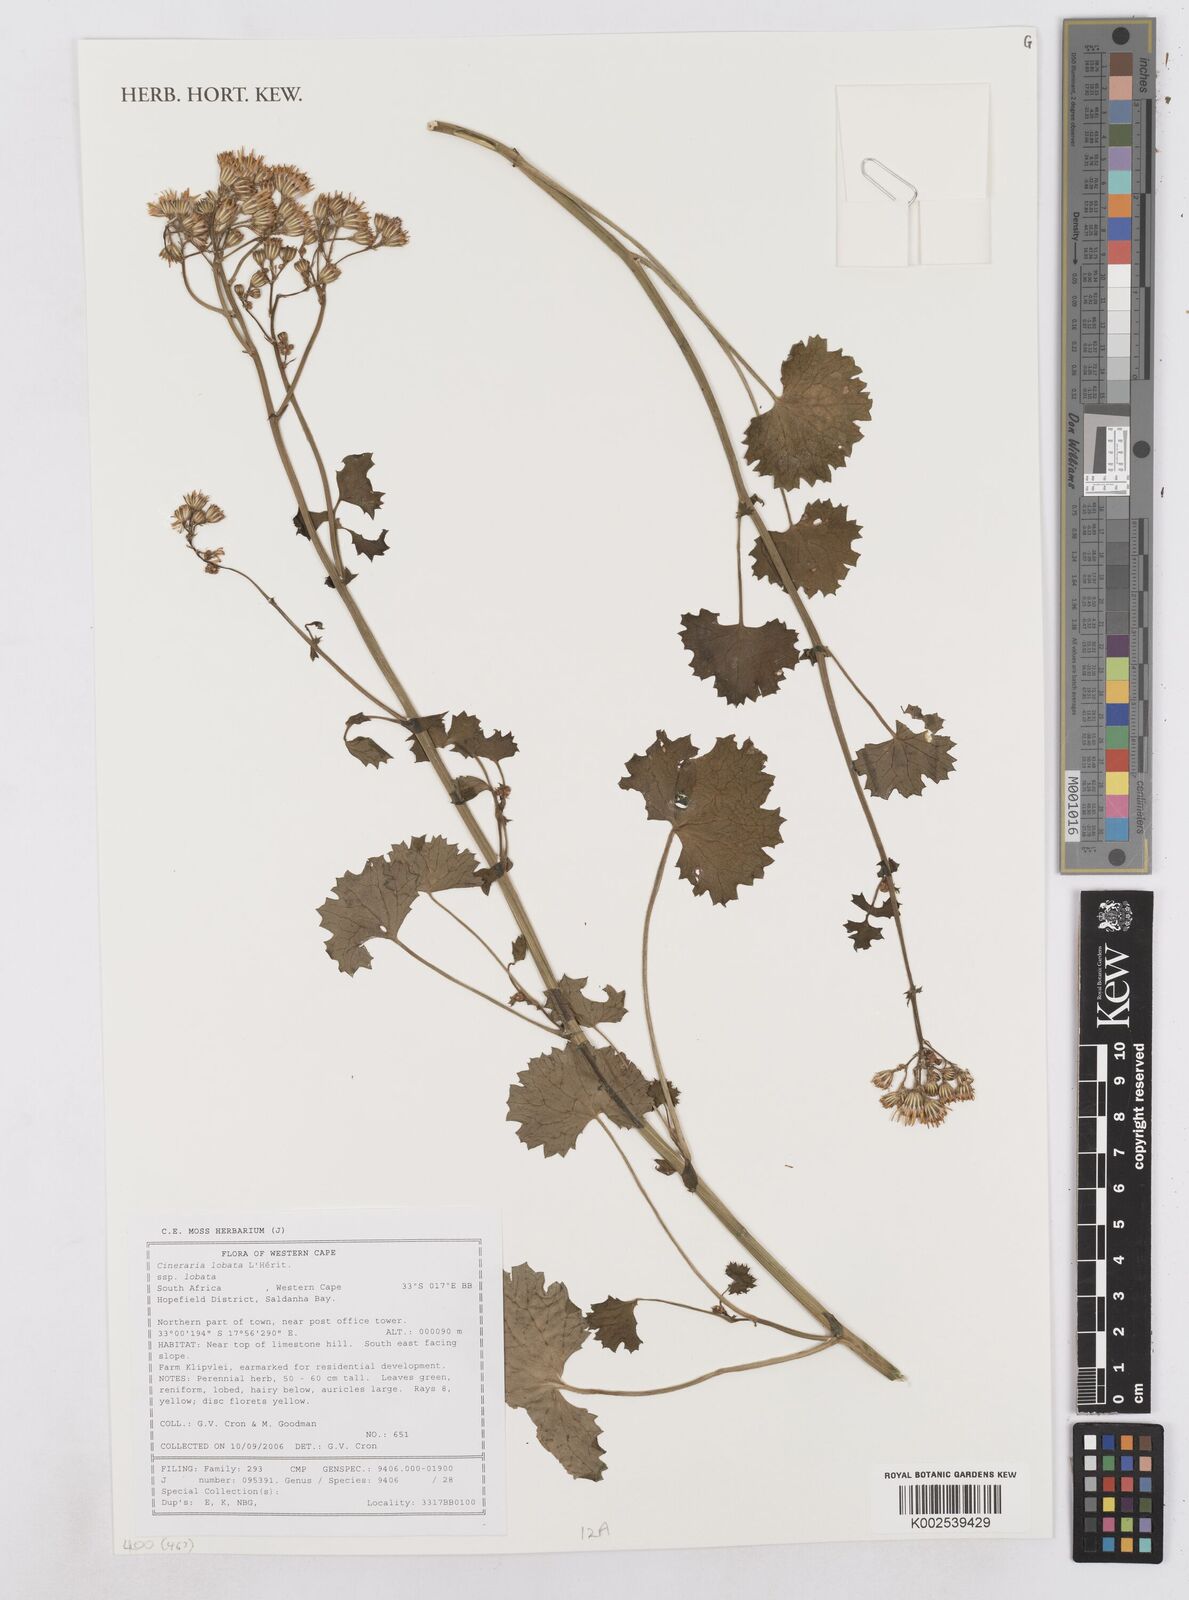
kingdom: Plantae
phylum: Tracheophyta
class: Magnoliopsida
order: Asterales
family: Asteraceae
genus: Cineraria
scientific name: Cineraria lobata
